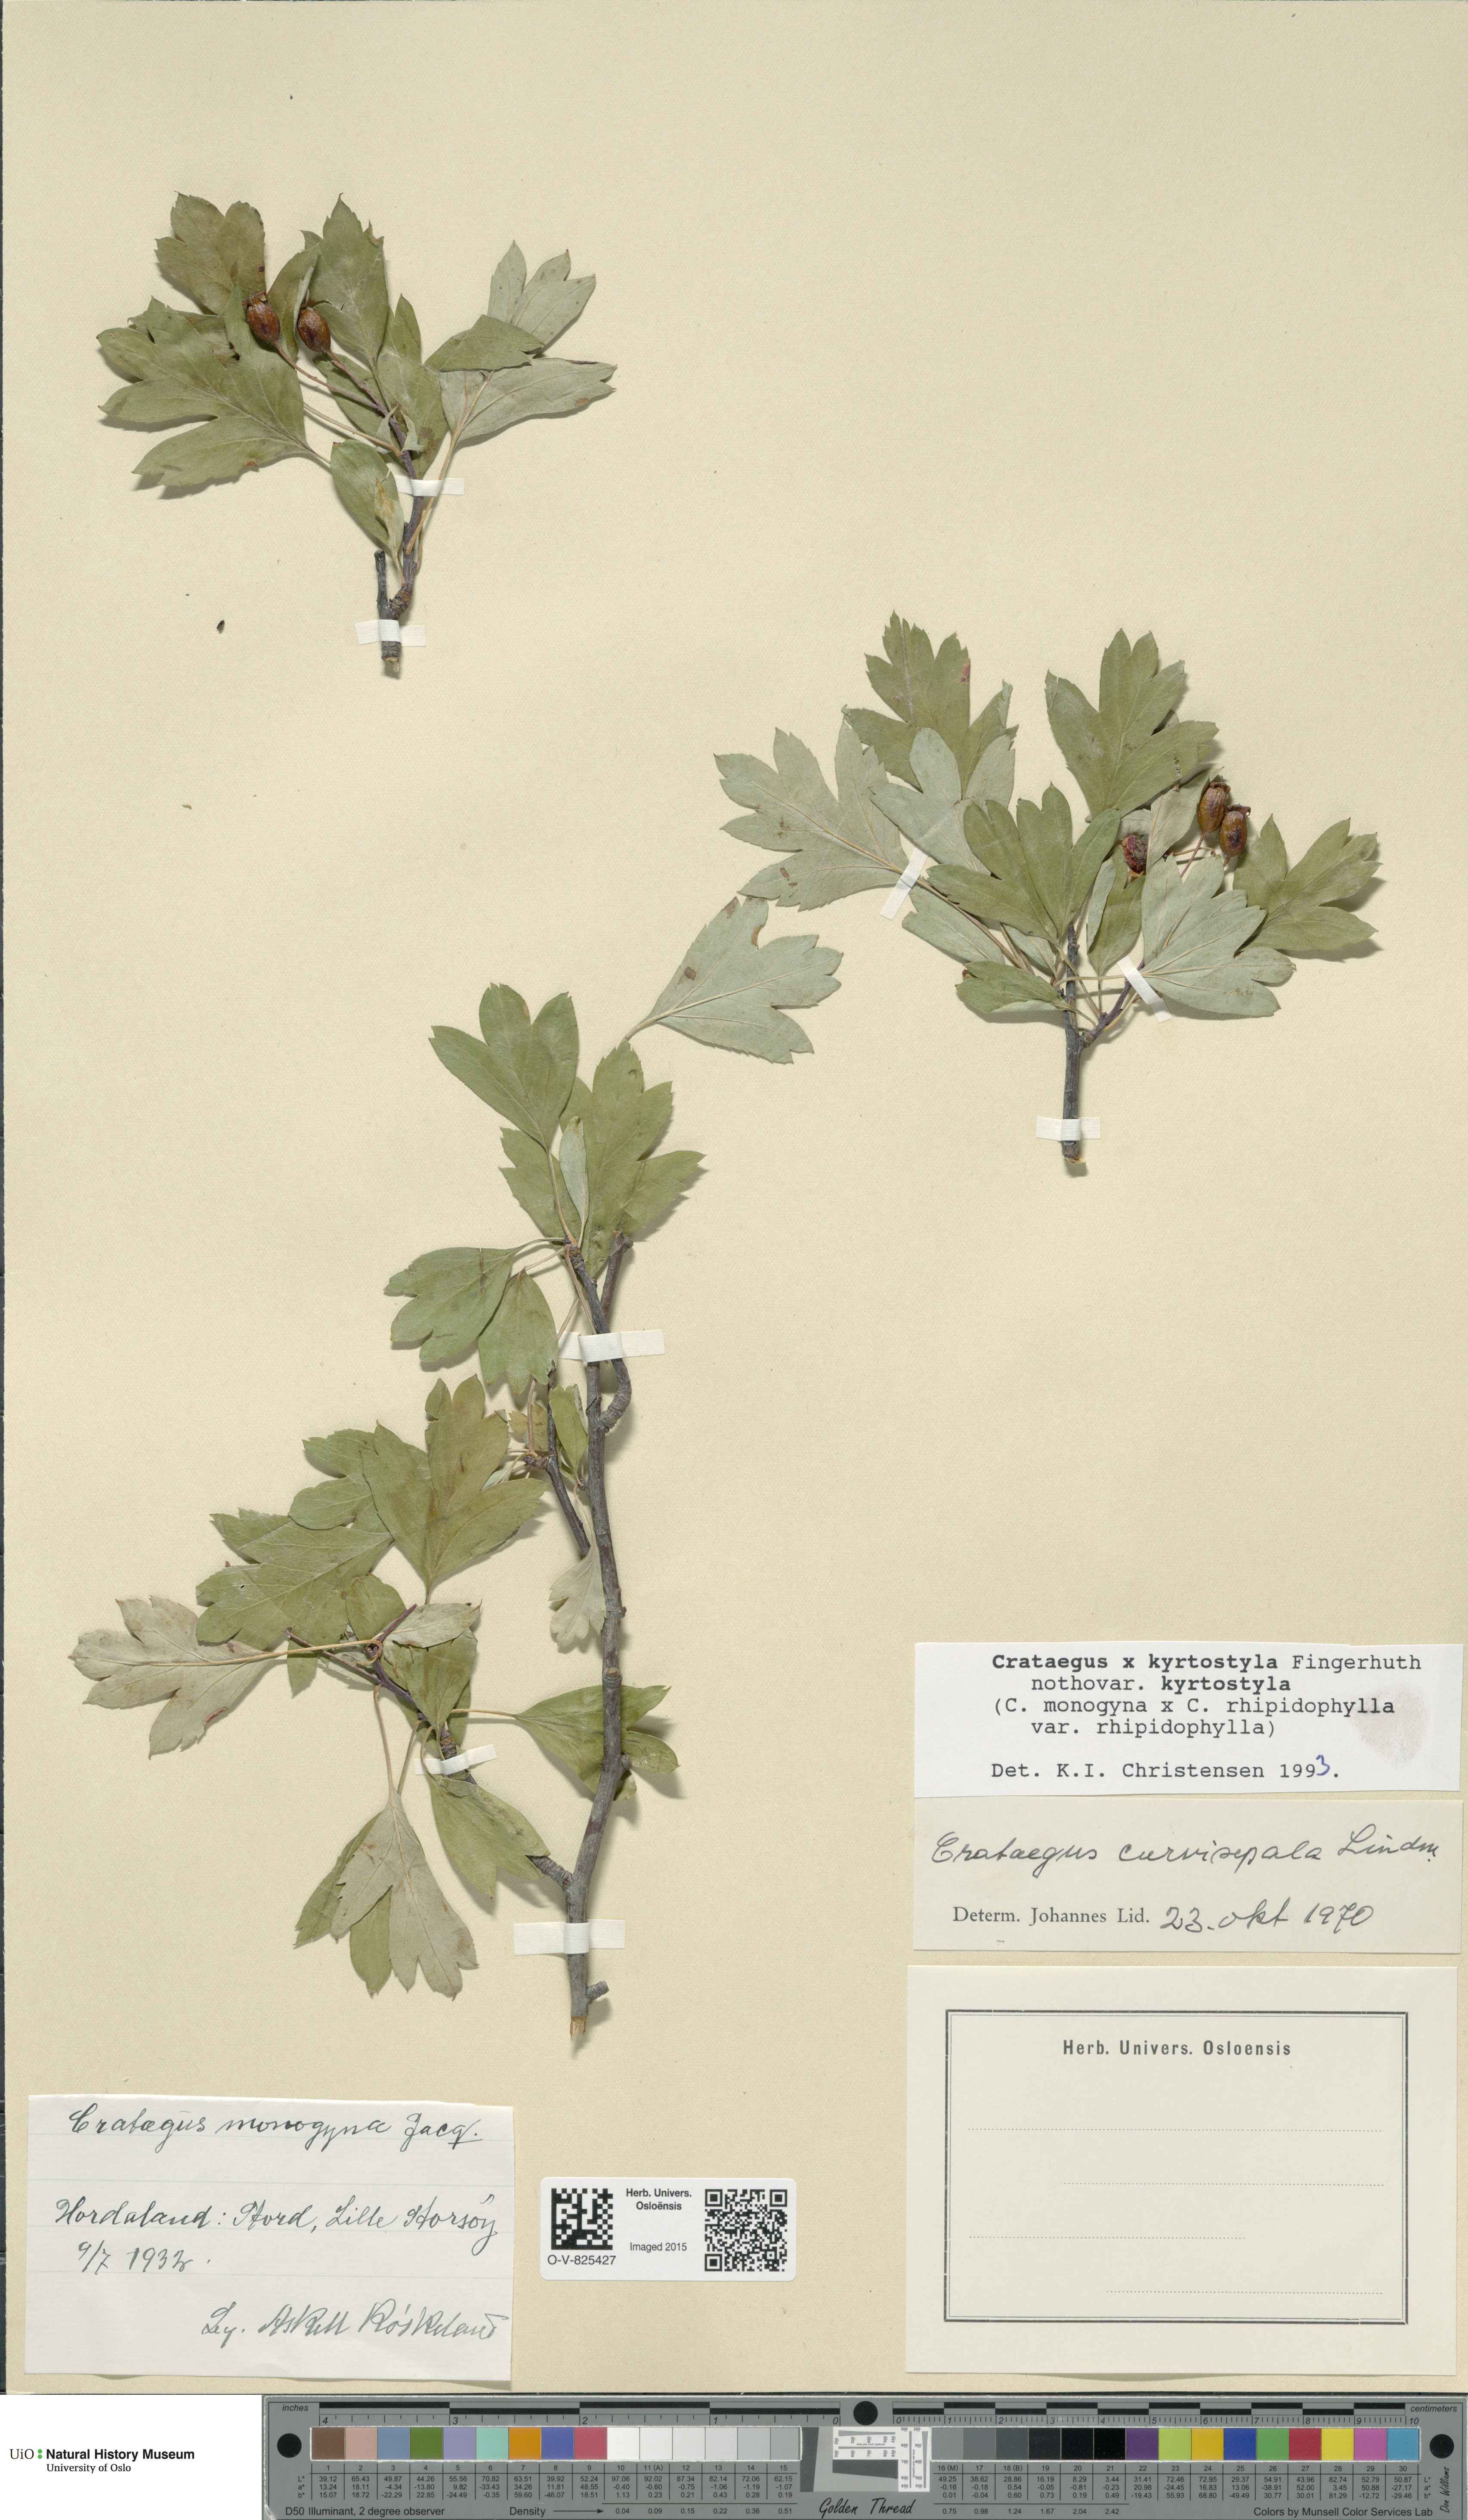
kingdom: Plantae
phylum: Tracheophyta
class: Magnoliopsida
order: Rosales
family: Rosaceae
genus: Crataegus
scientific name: Crataegus kyrtostyla
